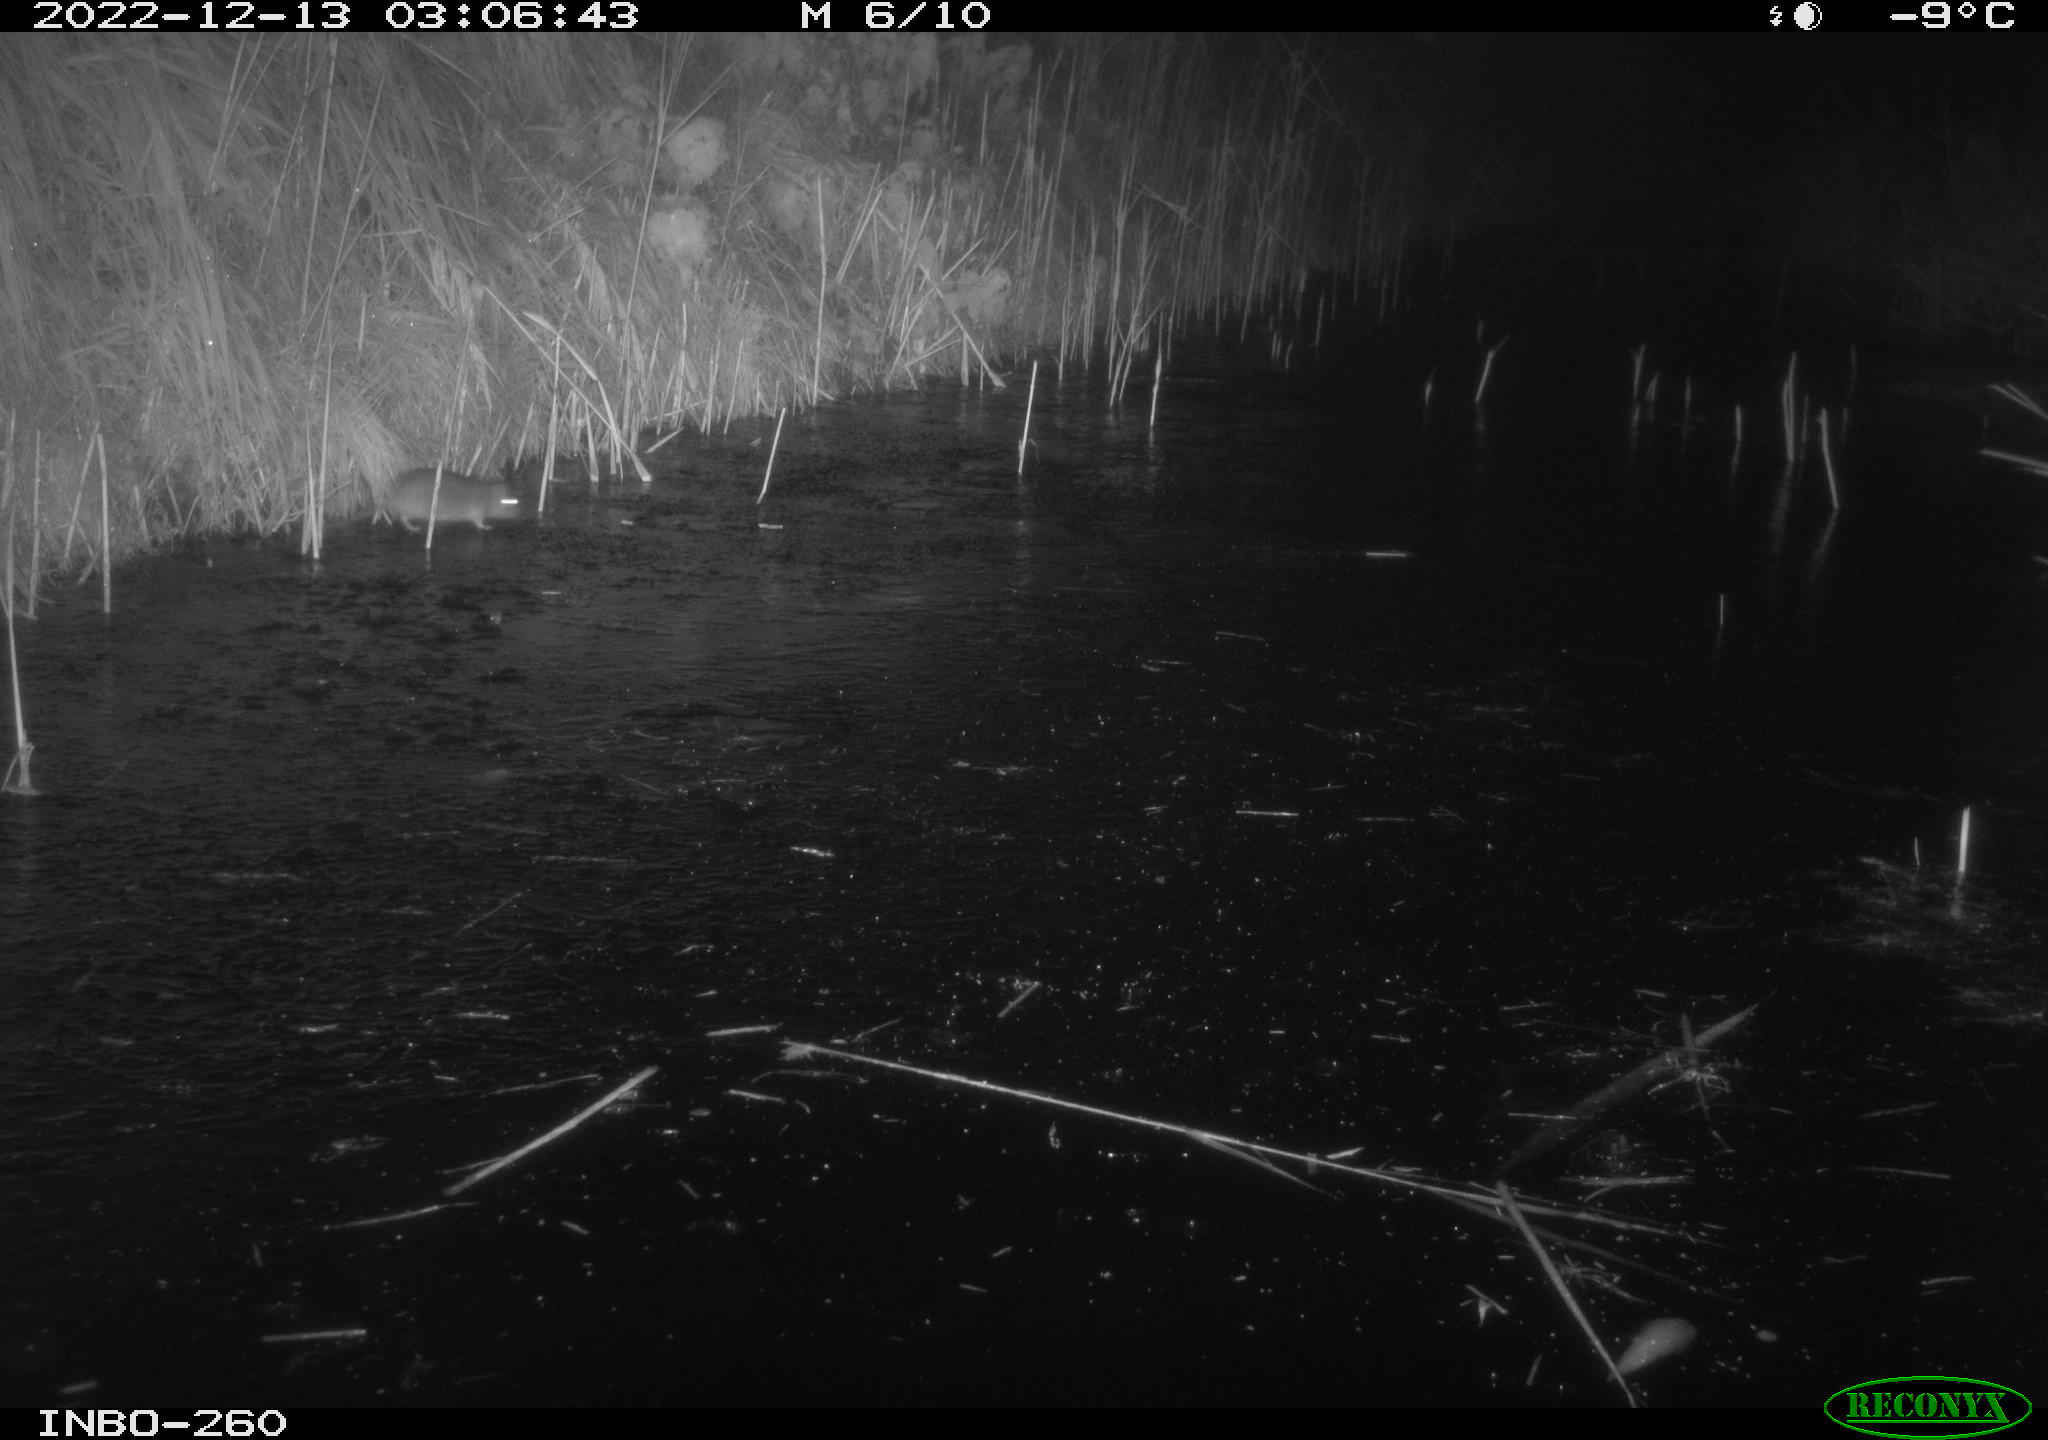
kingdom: Animalia
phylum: Chordata
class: Mammalia
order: Rodentia
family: Muridae
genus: Rattus
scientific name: Rattus norvegicus
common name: Brown rat
